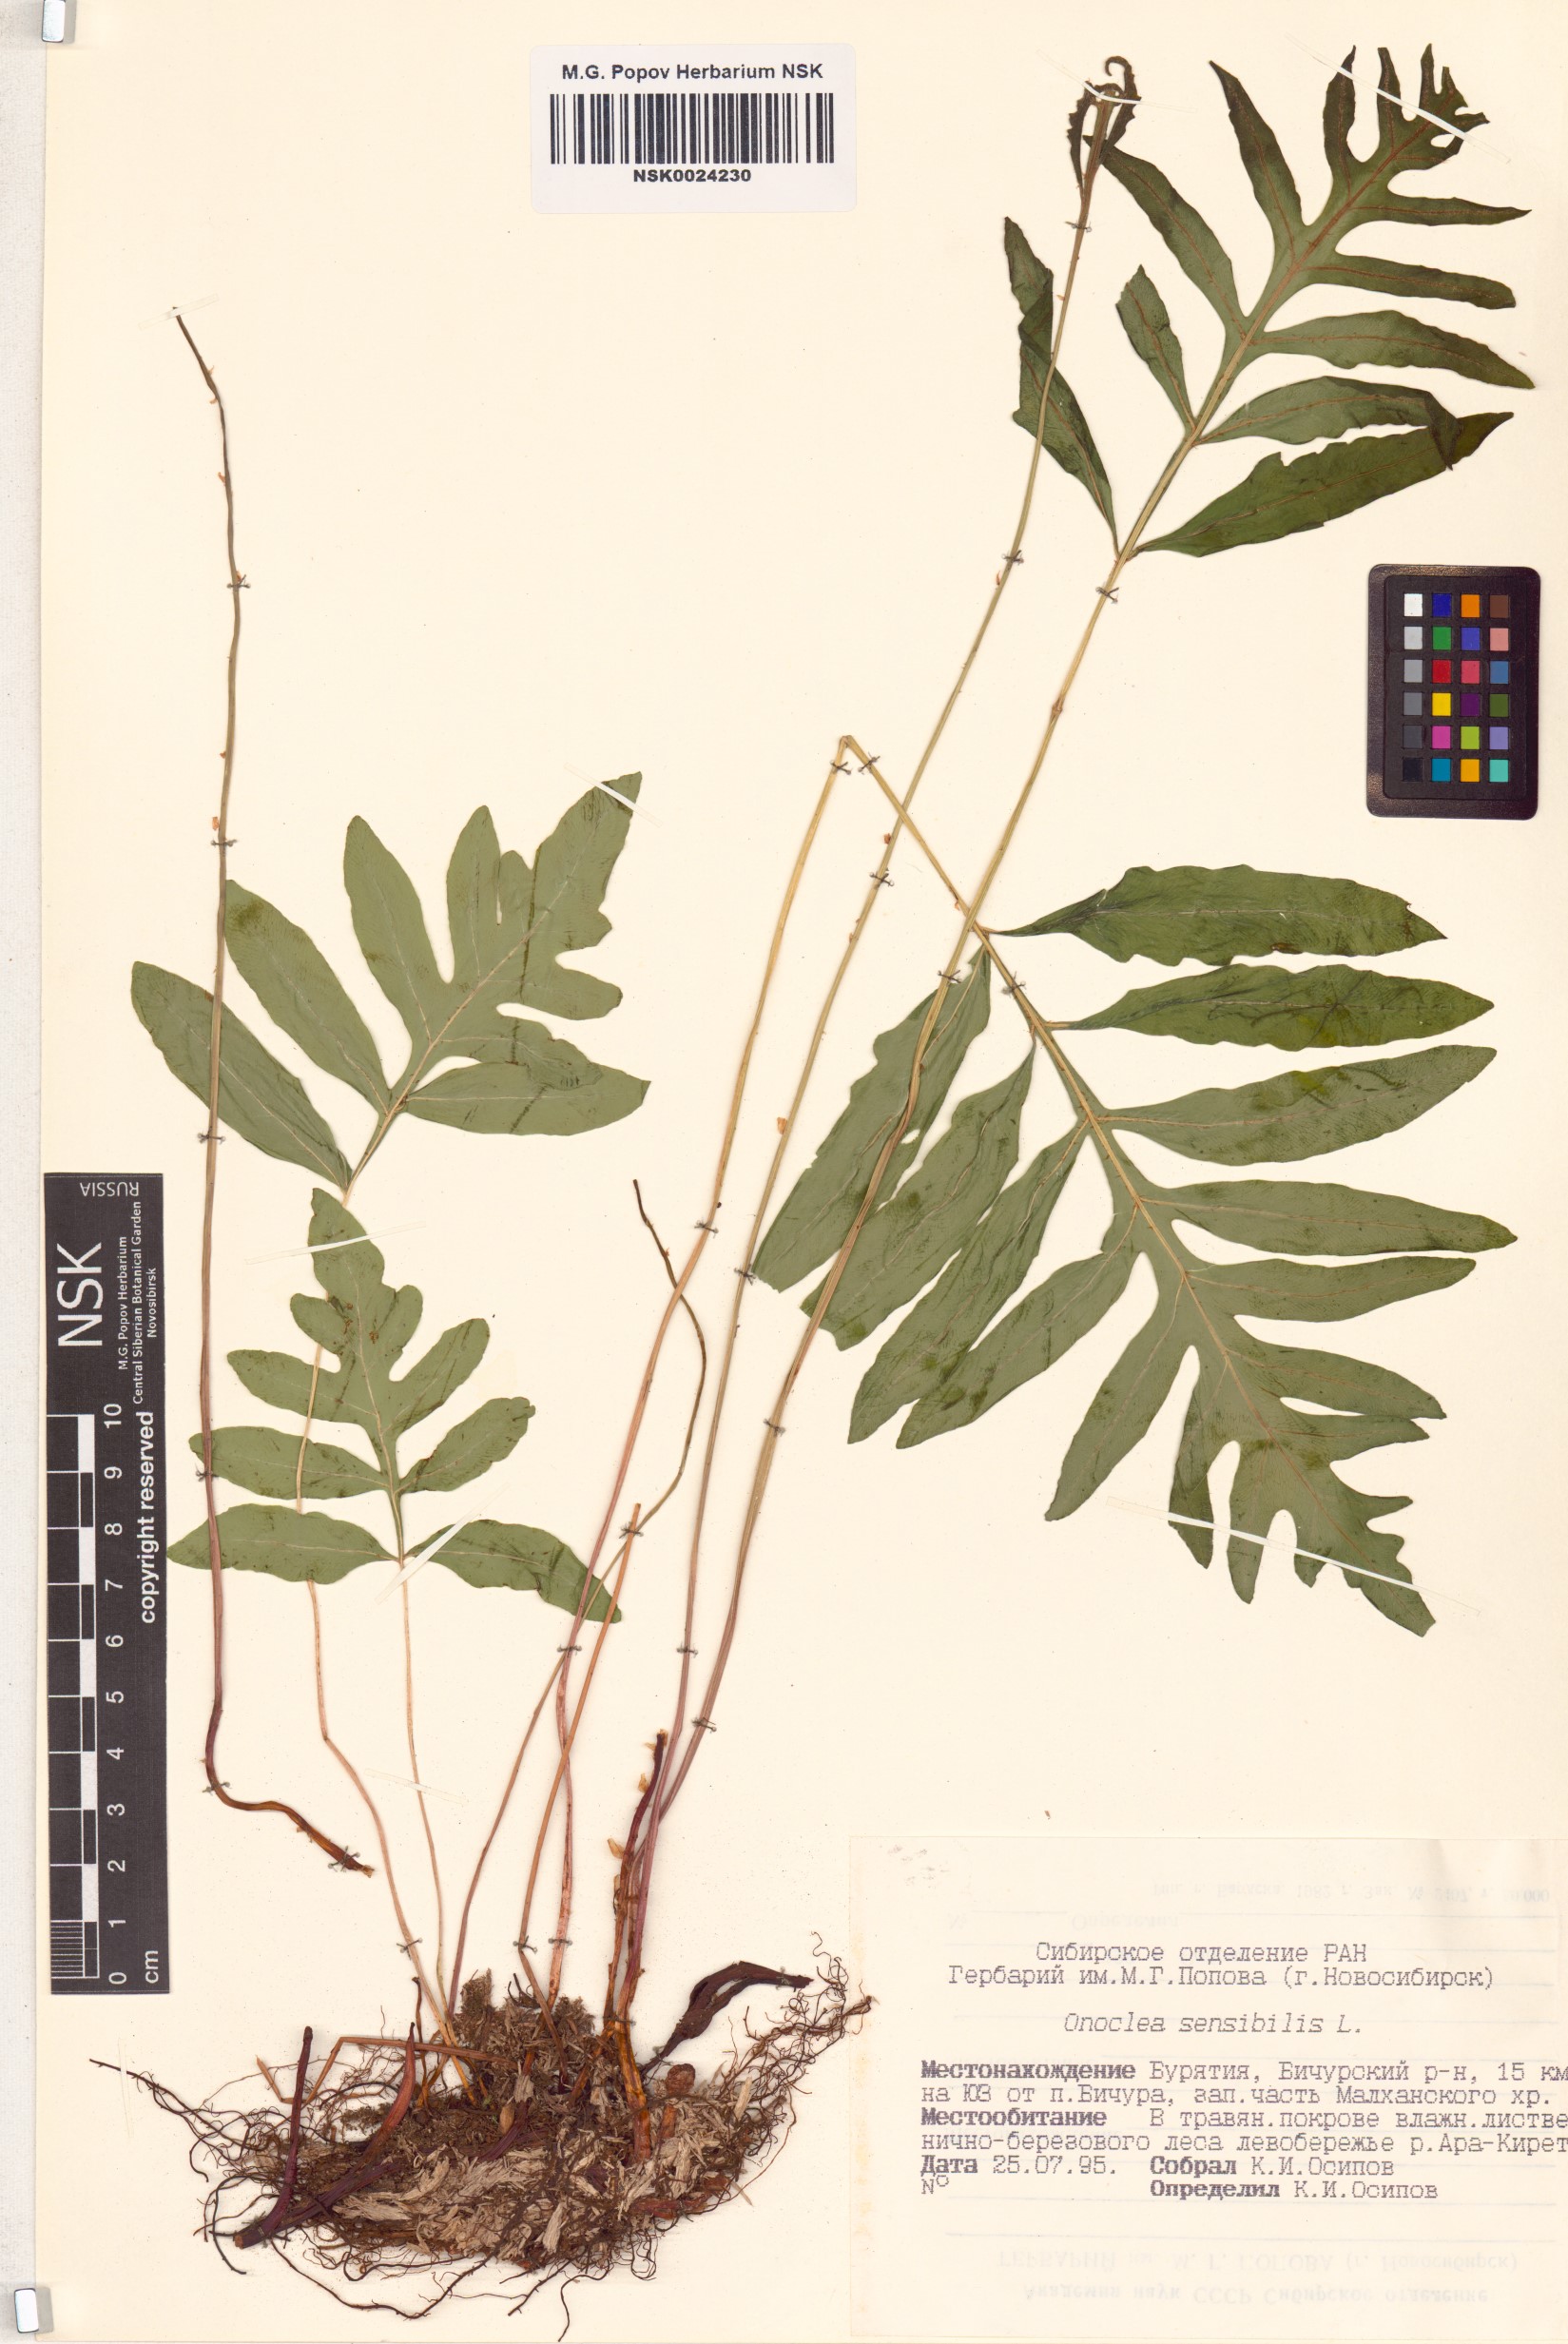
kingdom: Plantae
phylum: Tracheophyta
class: Polypodiopsida
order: Polypodiales
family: Onocleaceae
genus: Onoclea
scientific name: Onoclea sensibilis
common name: Sensitive fern
